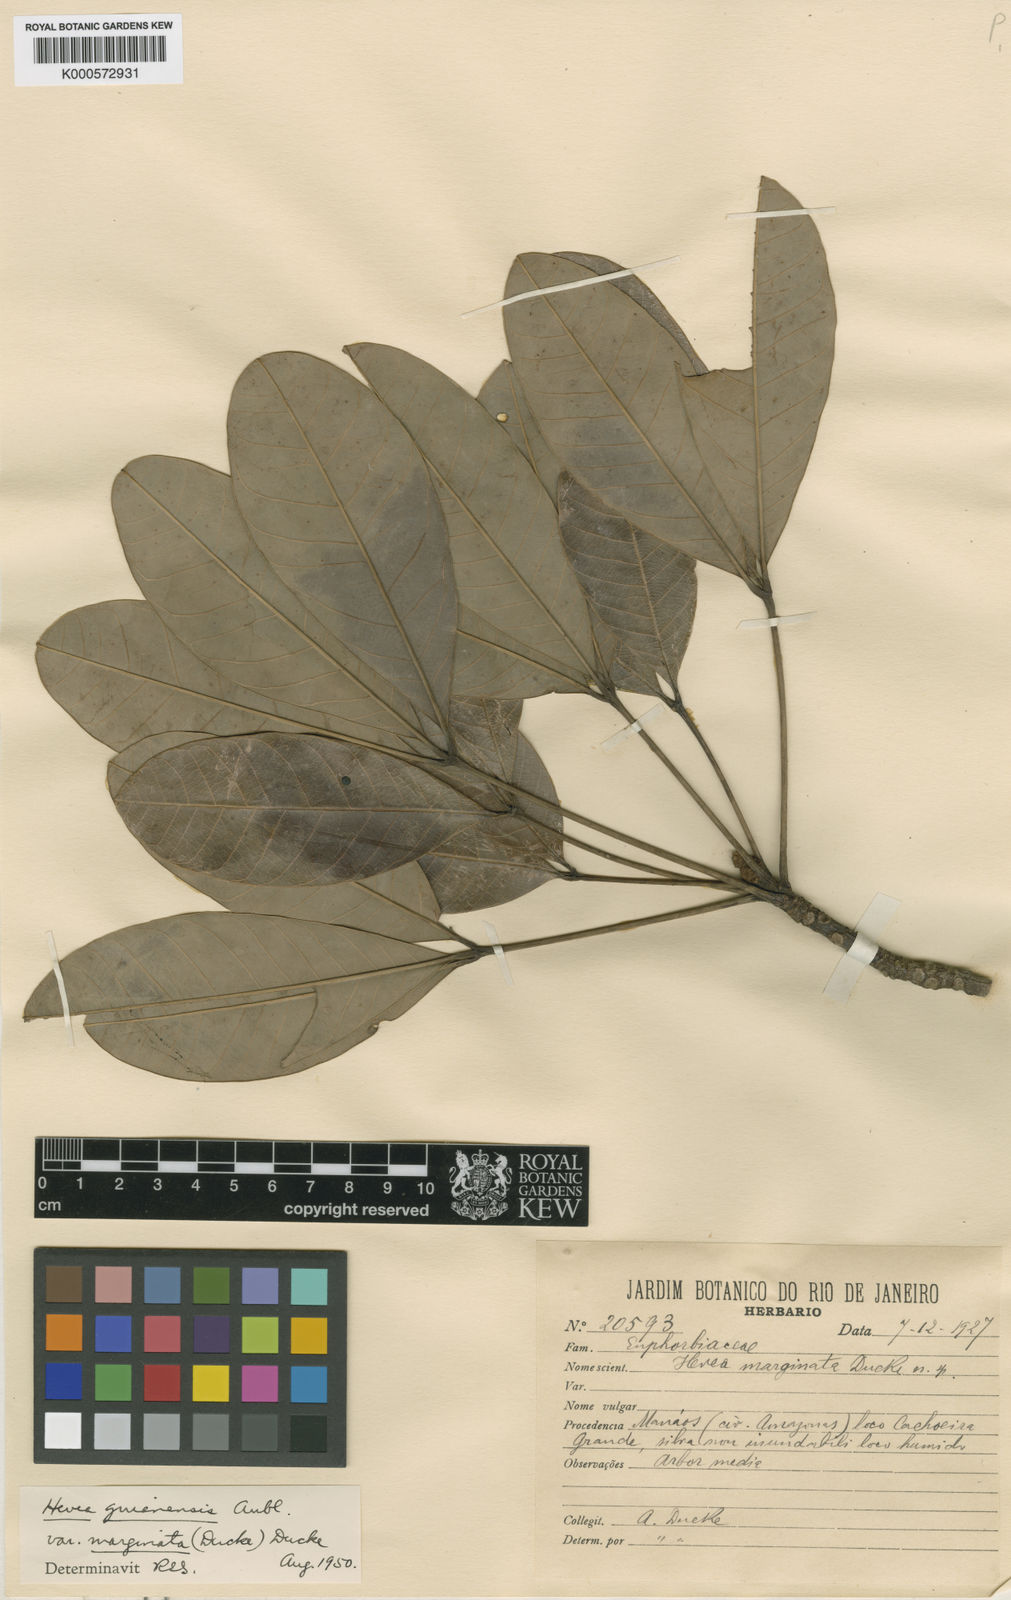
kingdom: Plantae
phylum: Tracheophyta
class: Magnoliopsida
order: Malpighiales
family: Euphorbiaceae
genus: Hevea
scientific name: Hevea guianensis
